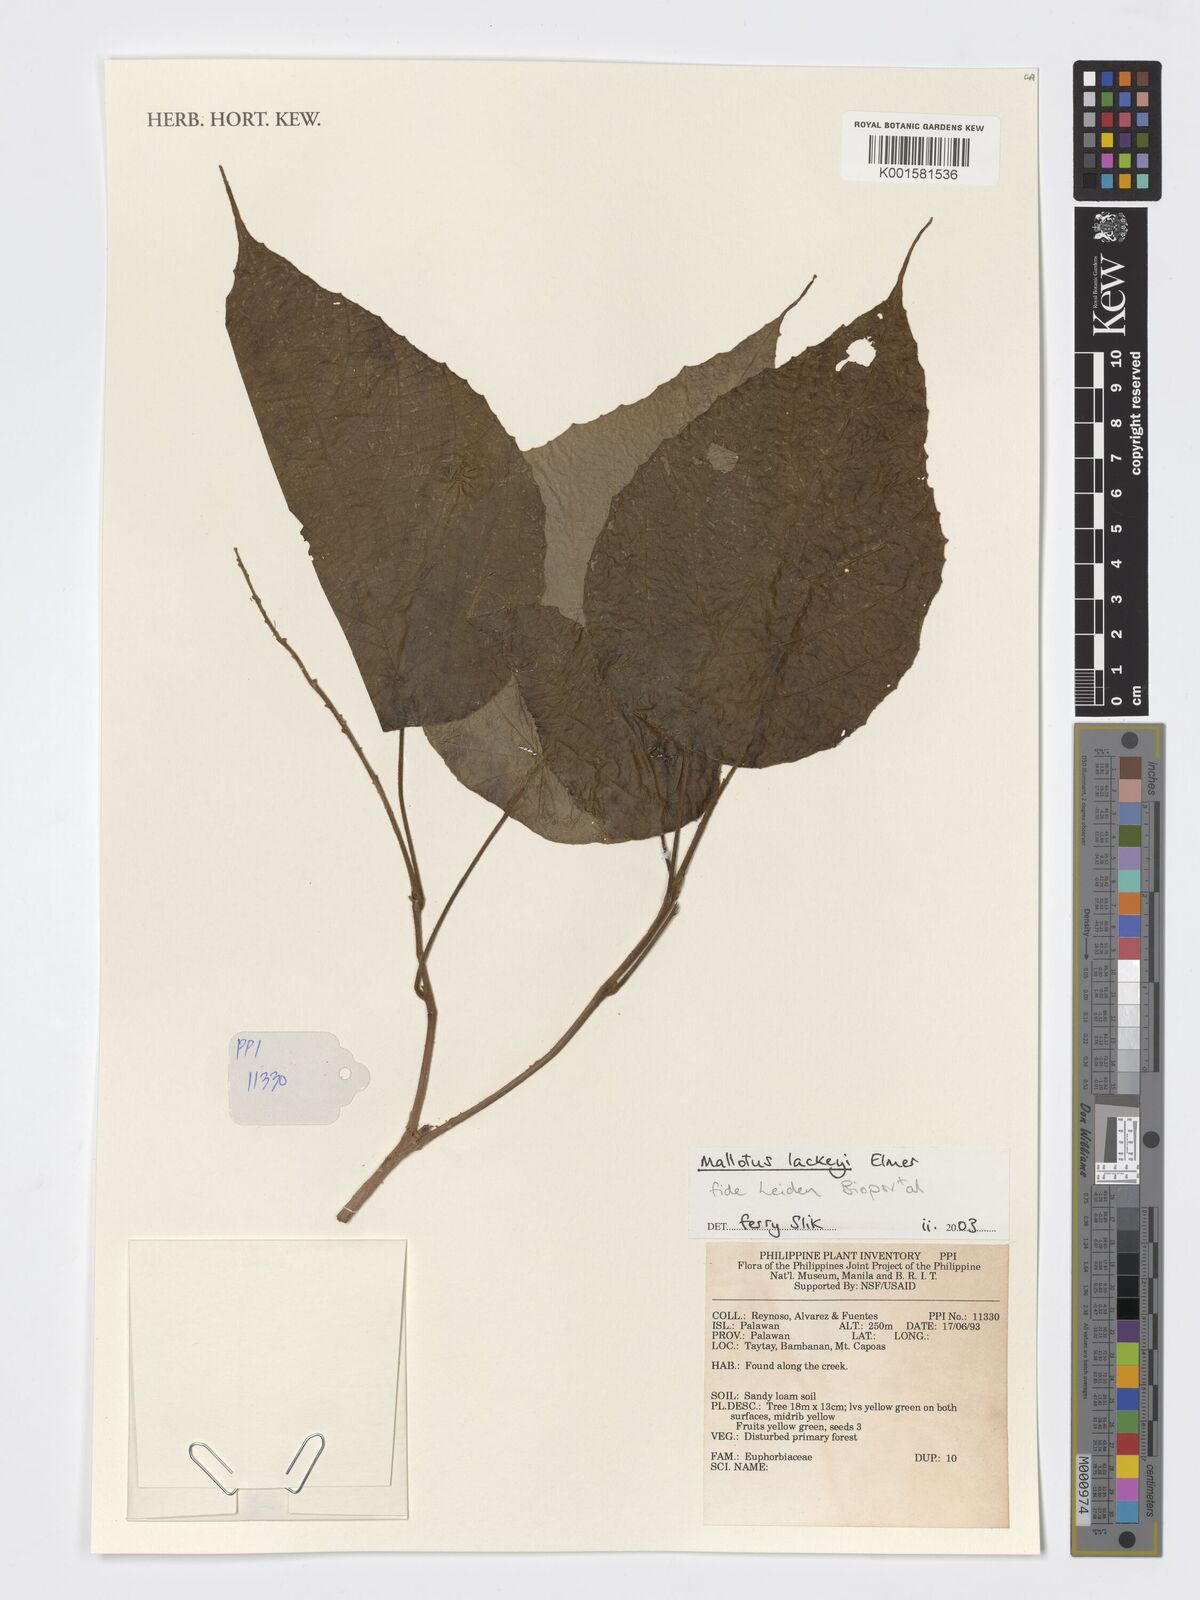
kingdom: Plantae
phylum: Tracheophyta
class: Magnoliopsida
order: Malpighiales
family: Euphorbiaceae
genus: Mallotus
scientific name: Mallotus lackeyi
